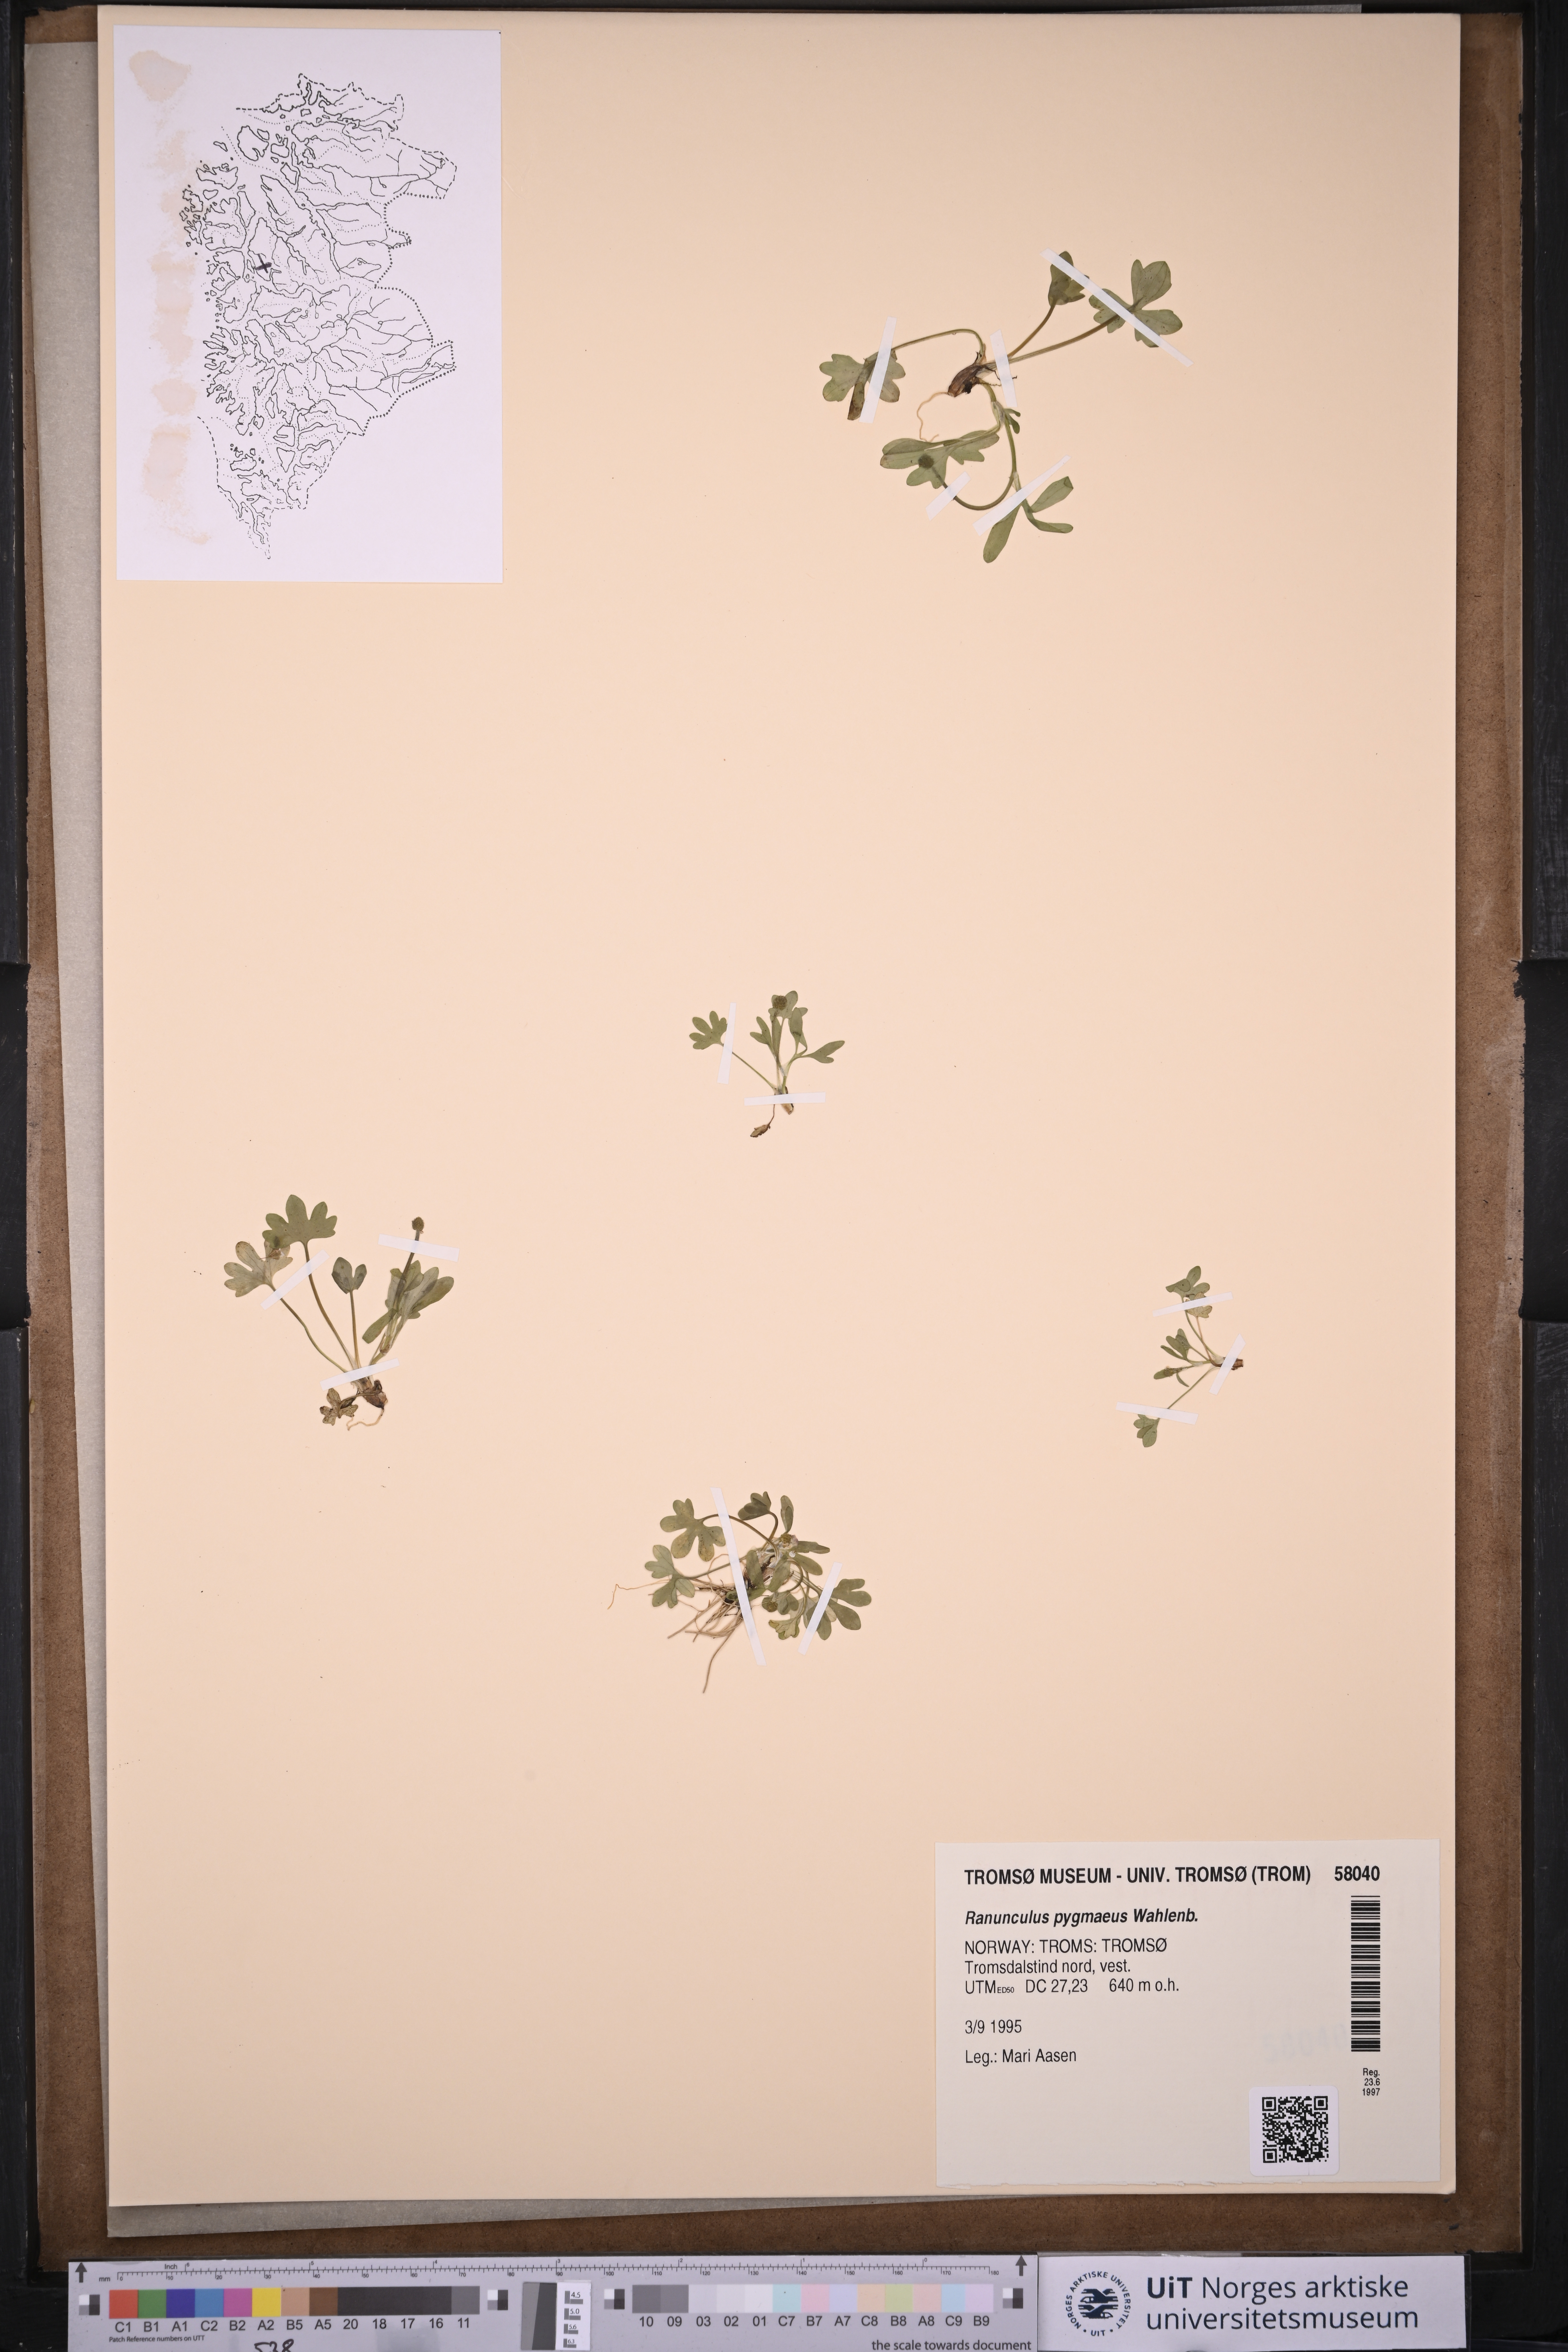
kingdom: Plantae
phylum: Tracheophyta
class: Magnoliopsida
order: Ranunculales
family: Ranunculaceae
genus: Ranunculus
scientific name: Ranunculus pygmaeus
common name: Dwarf buttercup
